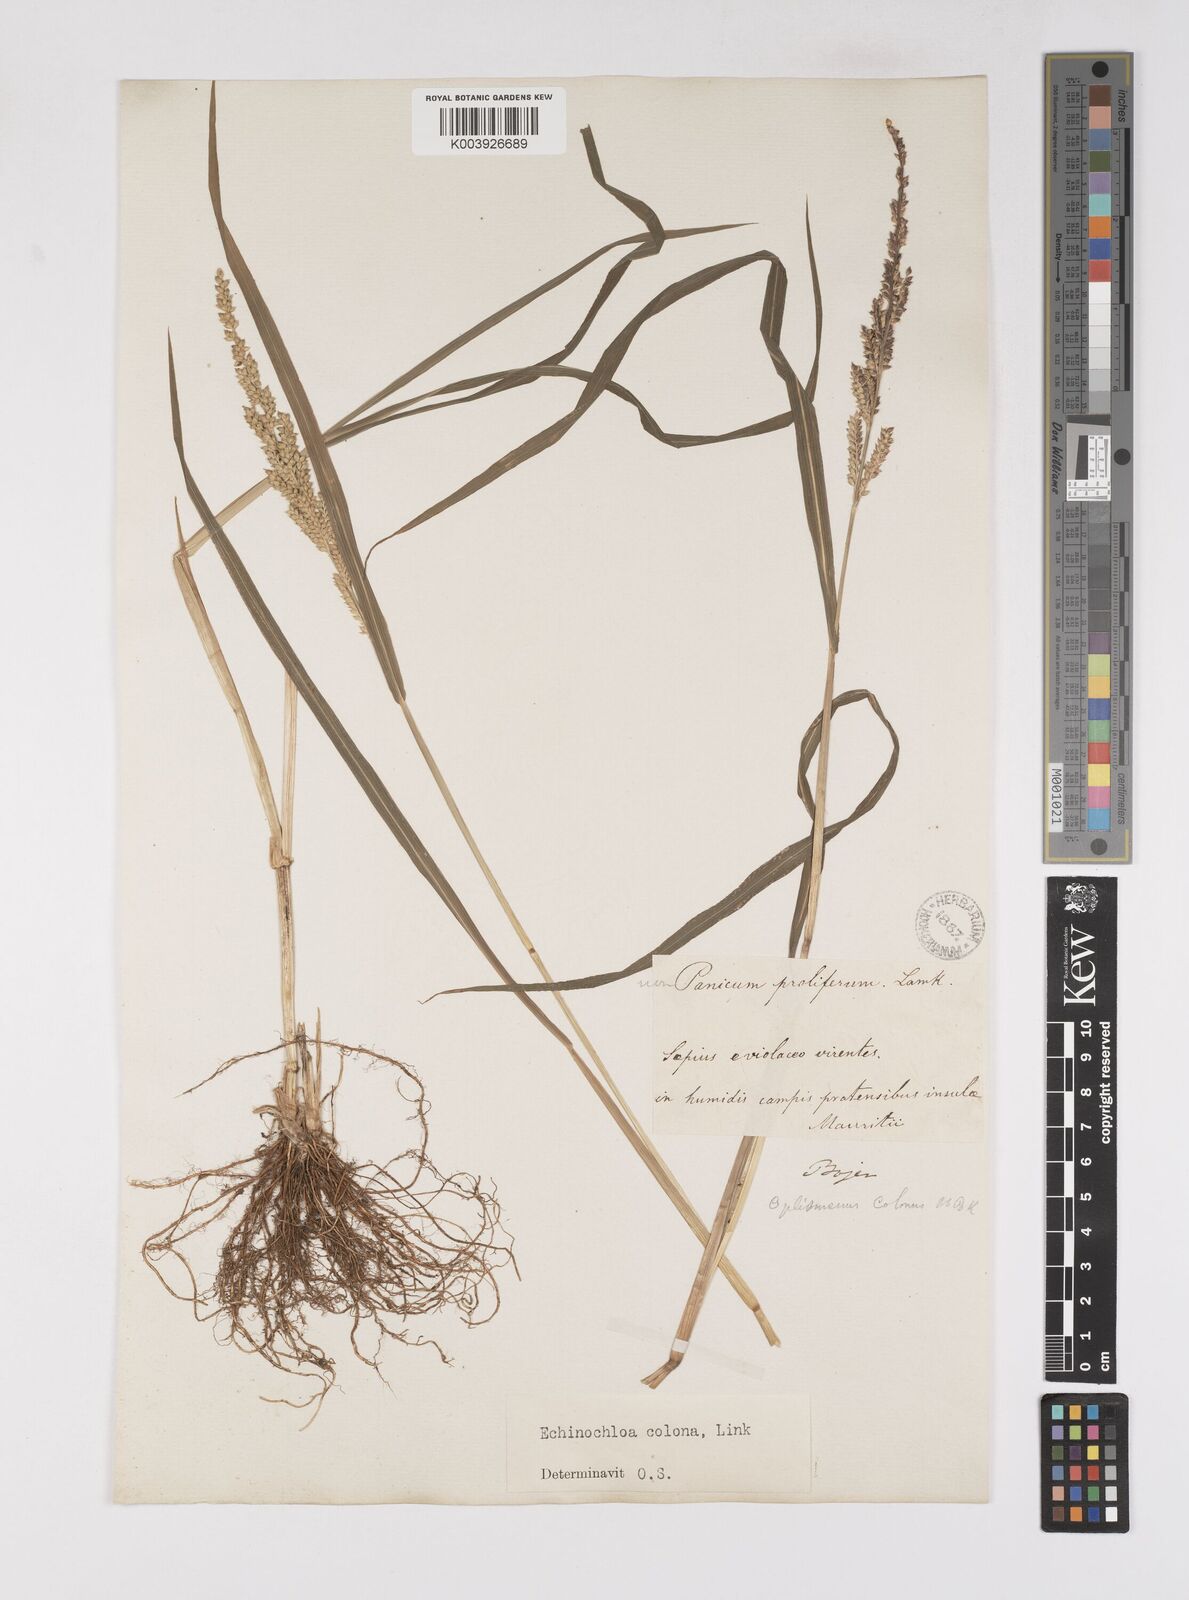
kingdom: Plantae
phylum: Tracheophyta
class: Liliopsida
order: Poales
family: Poaceae
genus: Echinochloa
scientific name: Echinochloa colonum
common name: Jungle rice
